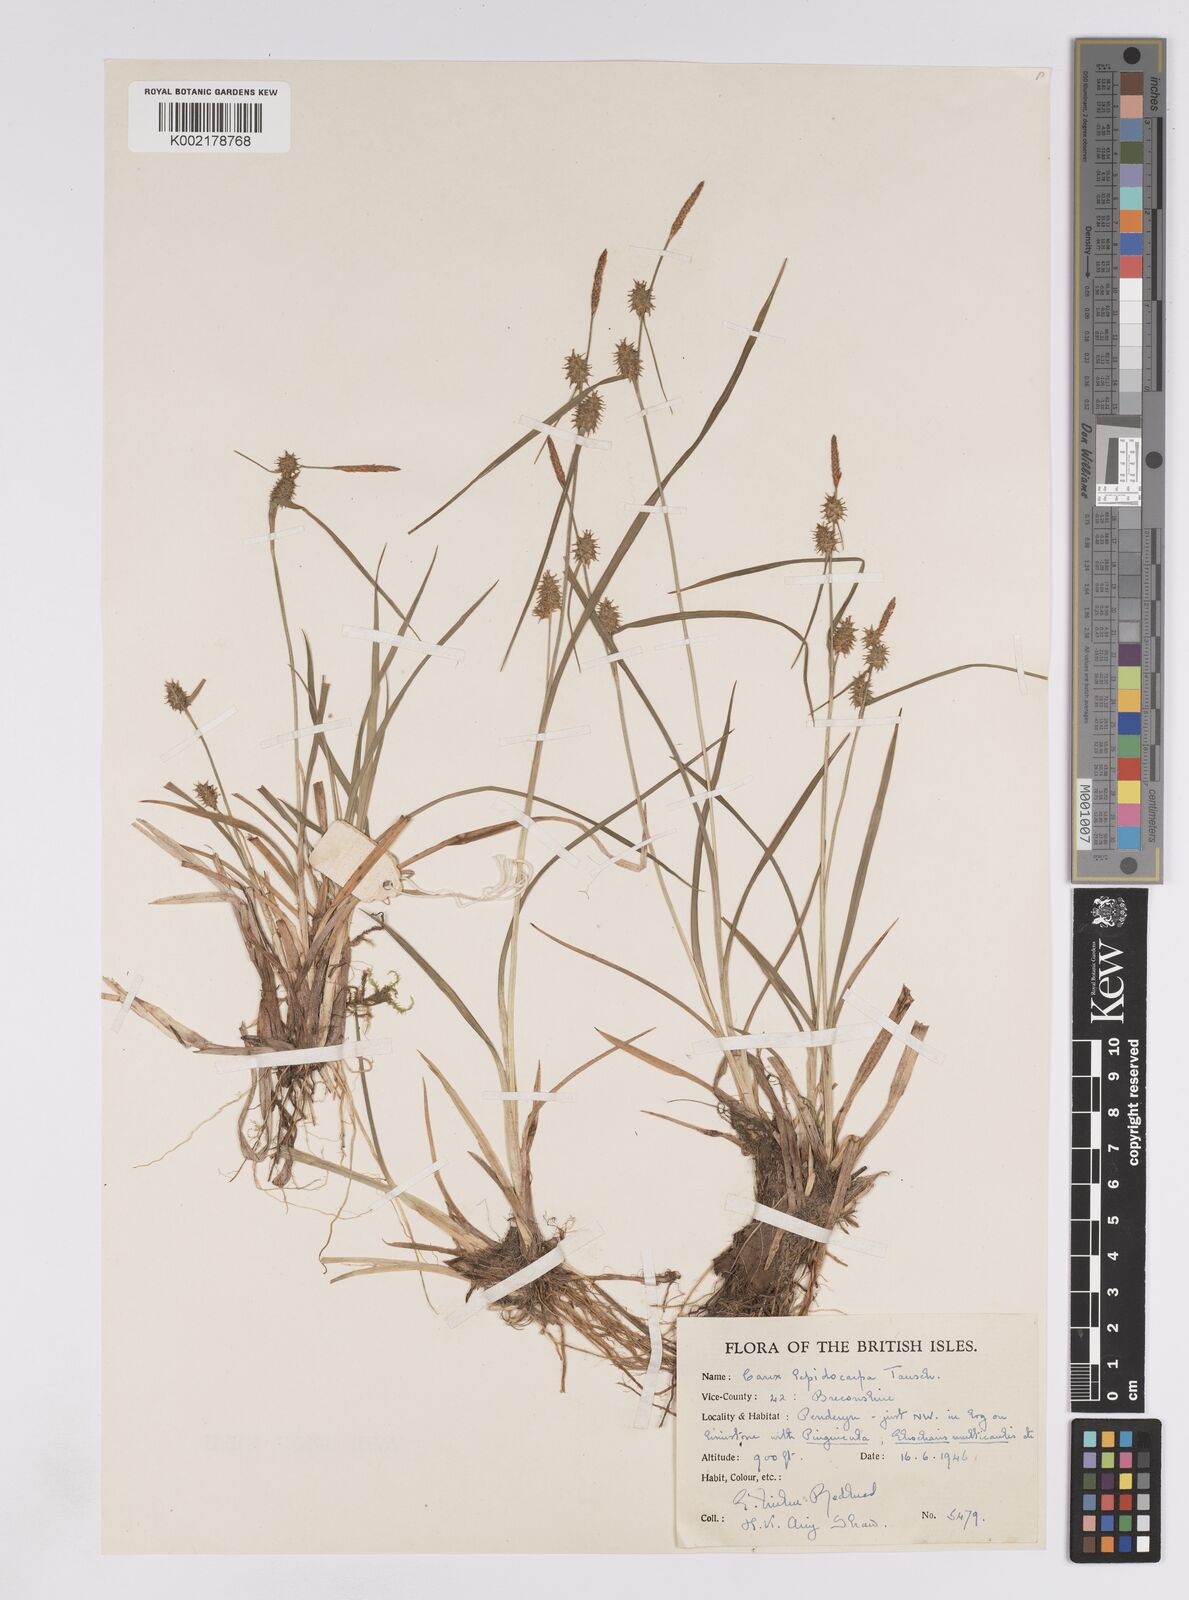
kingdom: Plantae
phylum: Tracheophyta
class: Liliopsida
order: Poales
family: Cyperaceae
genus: Carex
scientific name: Carex lepidocarpa
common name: Long-stalked yellow-sedge
